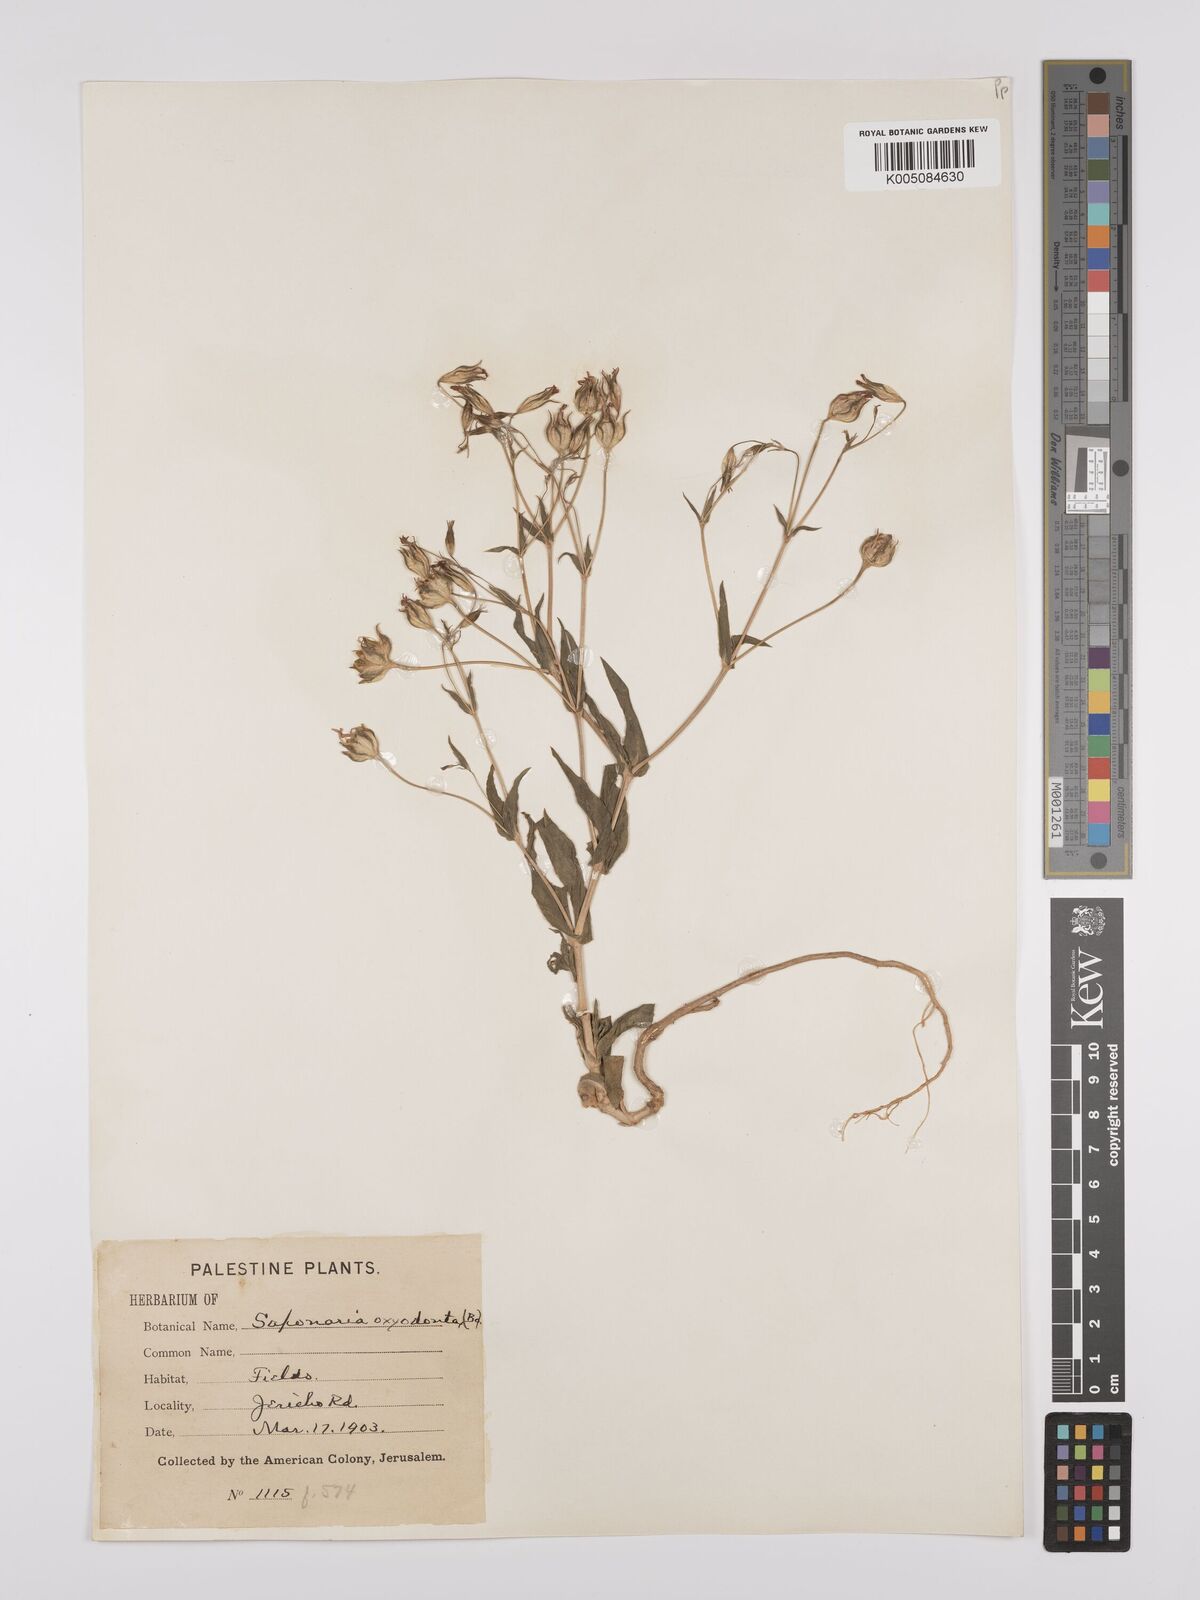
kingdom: Plantae
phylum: Tracheophyta
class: Magnoliopsida
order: Caryophyllales
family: Caryophyllaceae
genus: Gypsophila
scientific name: Gypsophila vaccaria
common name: Cow soapwort
